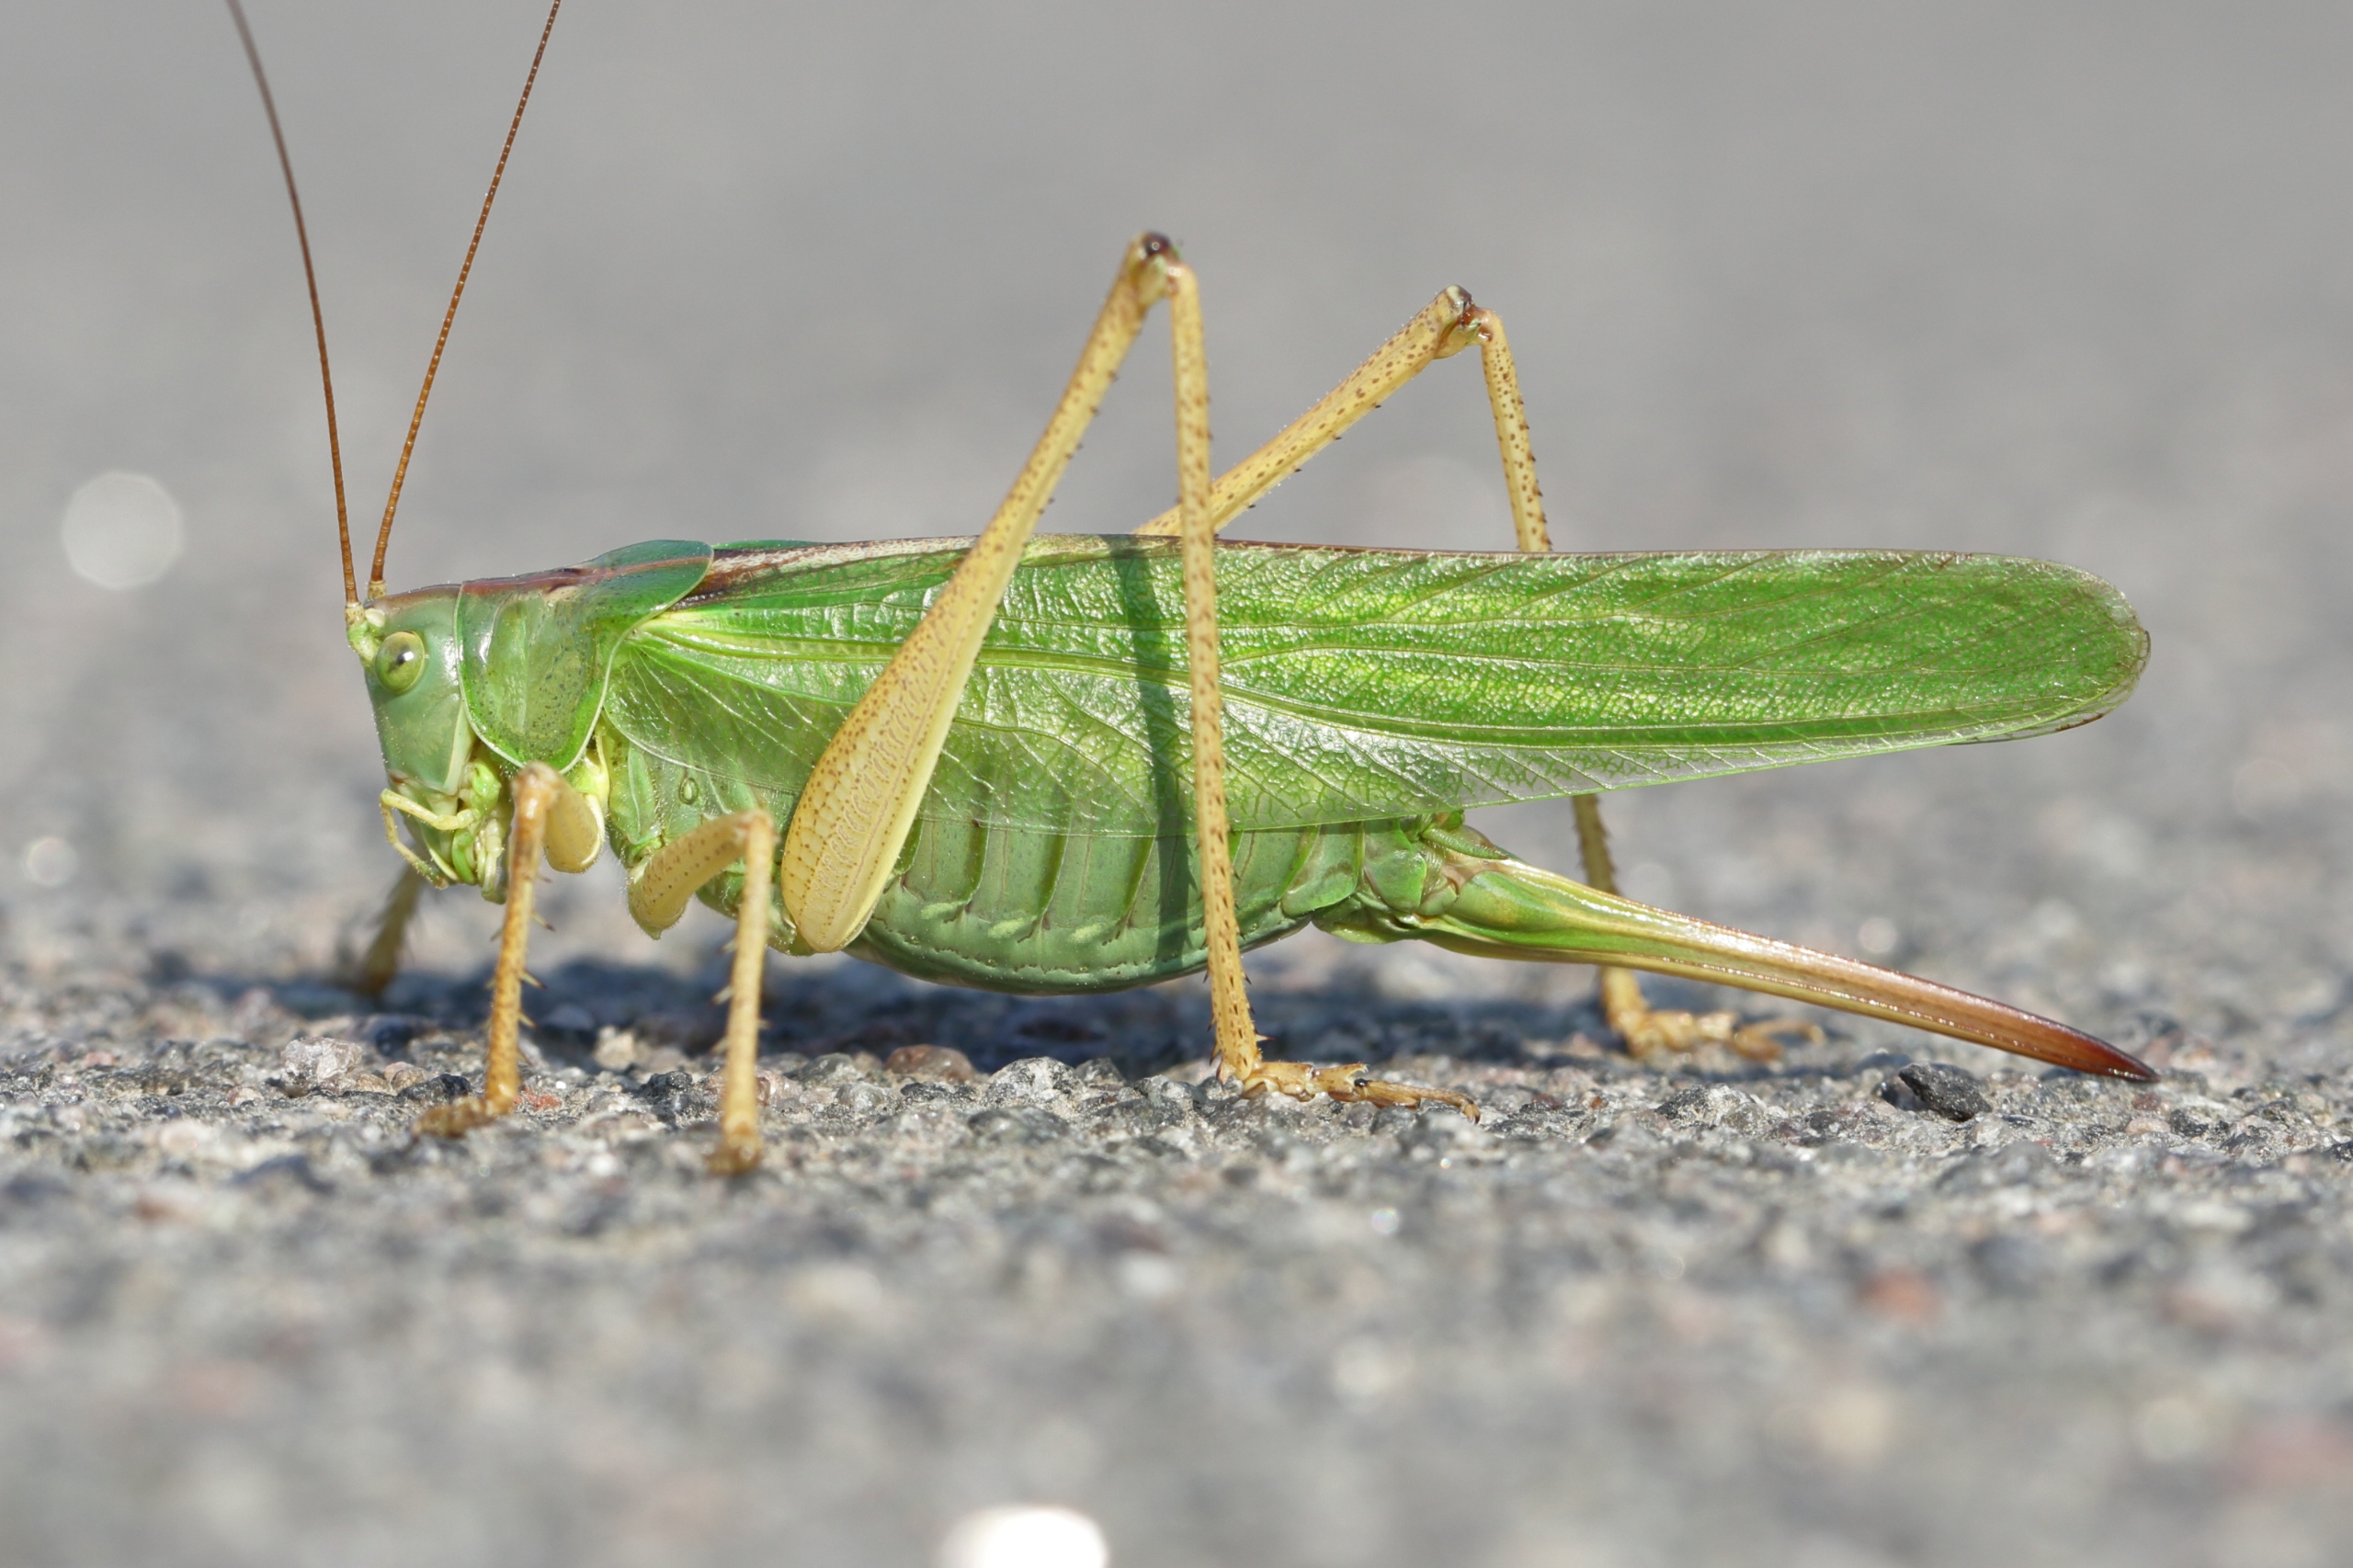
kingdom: Animalia
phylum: Arthropoda
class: Insecta
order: Orthoptera
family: Tettigoniidae
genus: Tettigonia
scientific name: Tettigonia viridissima
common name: Stor grøn løvgræshoppe
